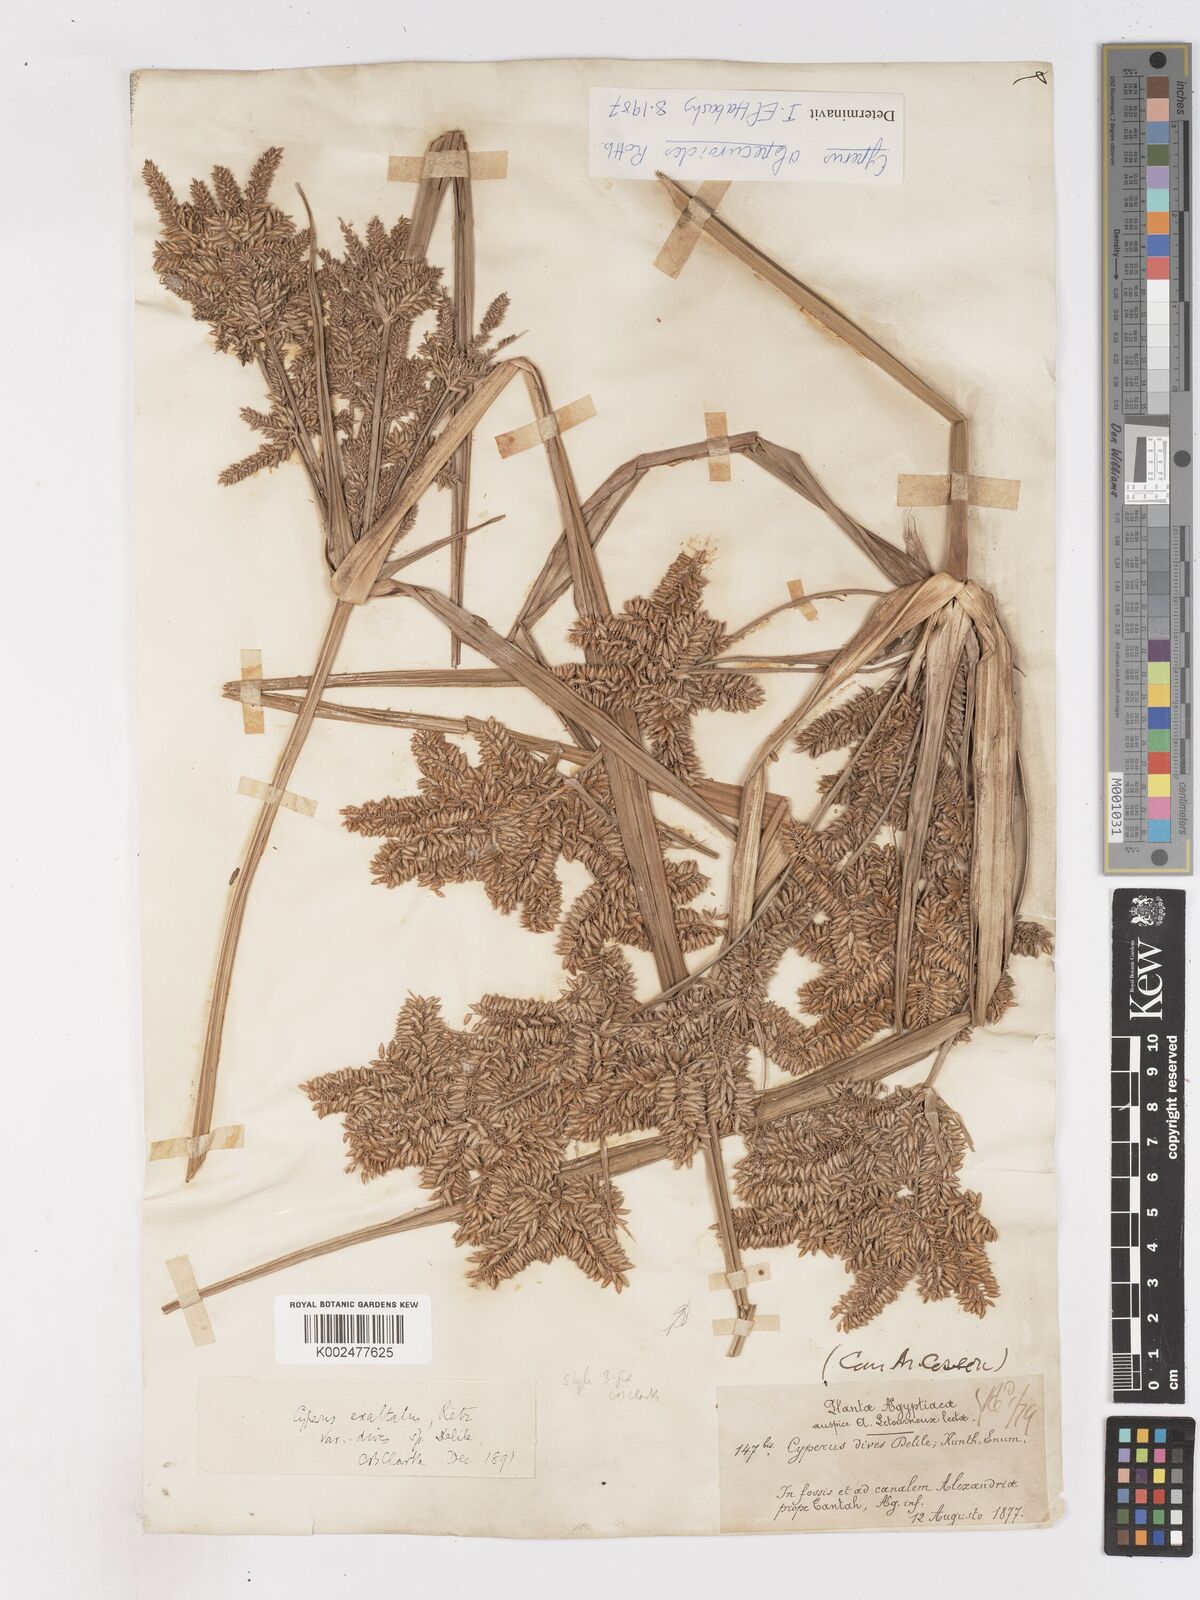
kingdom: Plantae
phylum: Tracheophyta
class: Liliopsida
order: Poales
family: Cyperaceae
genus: Cyperus
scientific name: Cyperus
